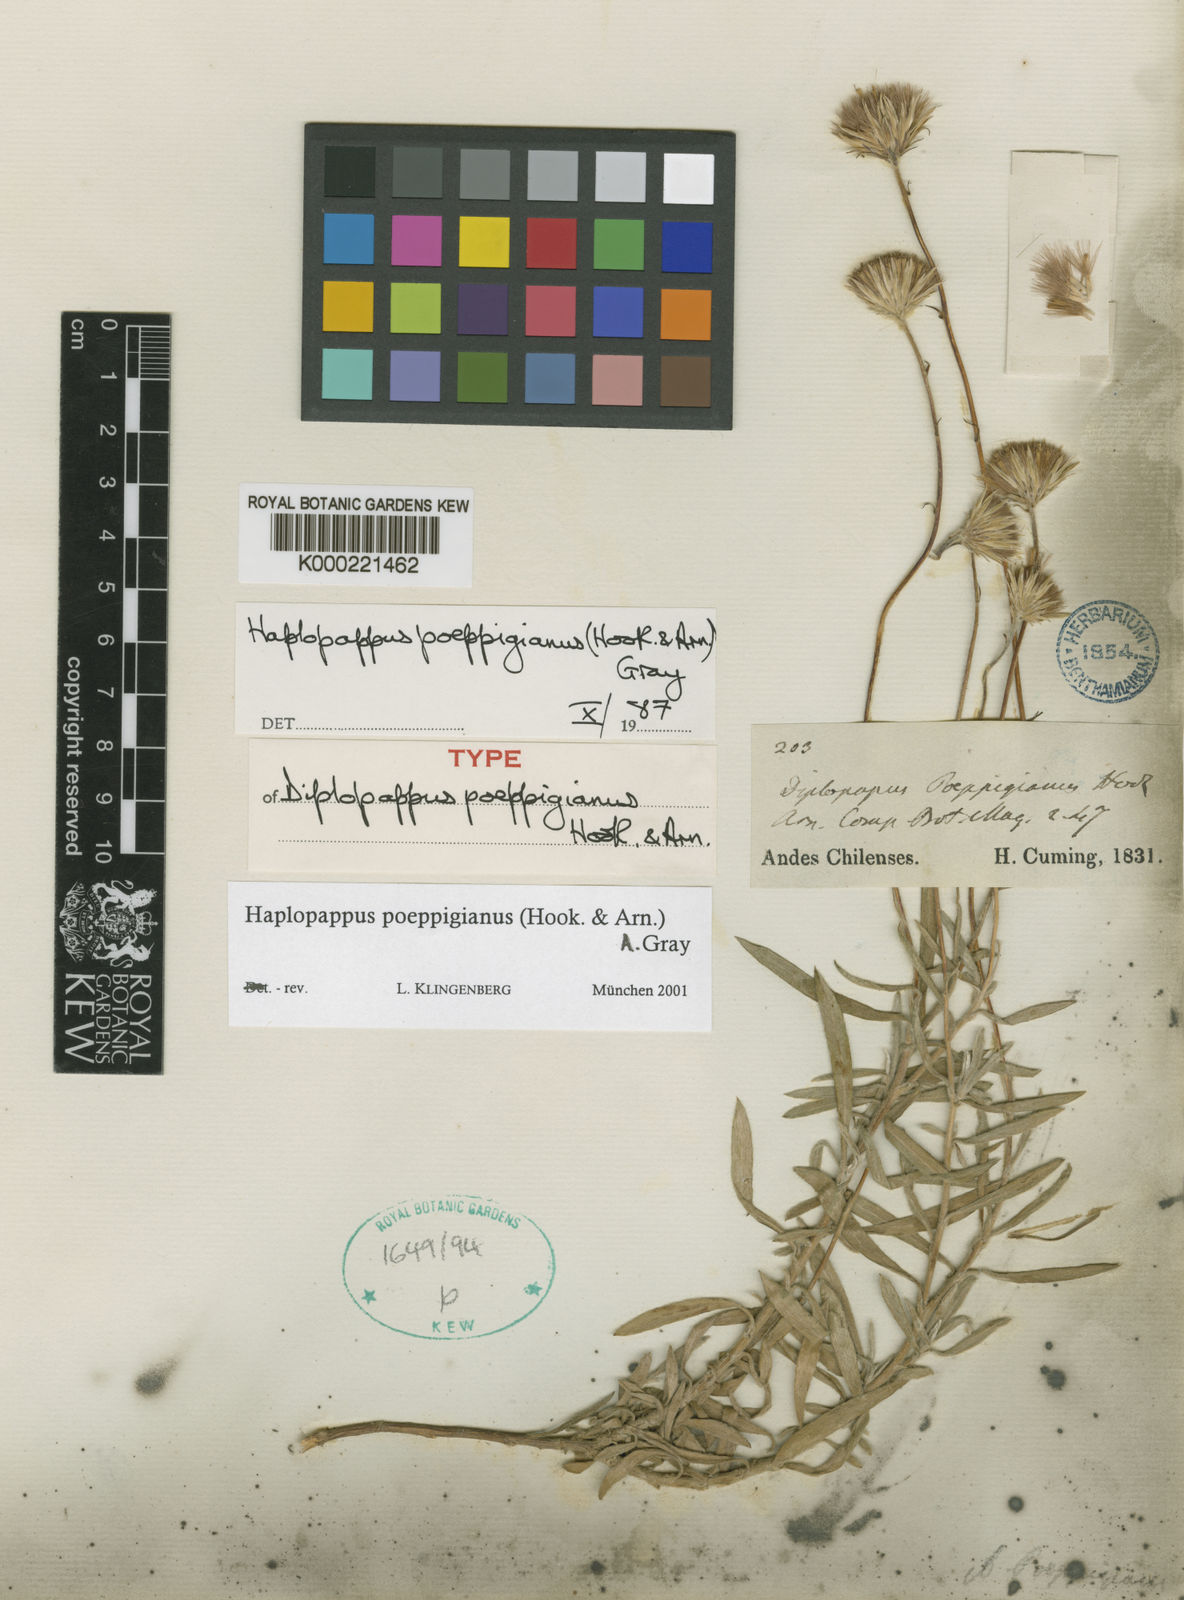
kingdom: Plantae
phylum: Tracheophyta
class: Magnoliopsida
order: Asterales
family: Asteraceae
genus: Haplopappus
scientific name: Haplopappus poeppigianus
